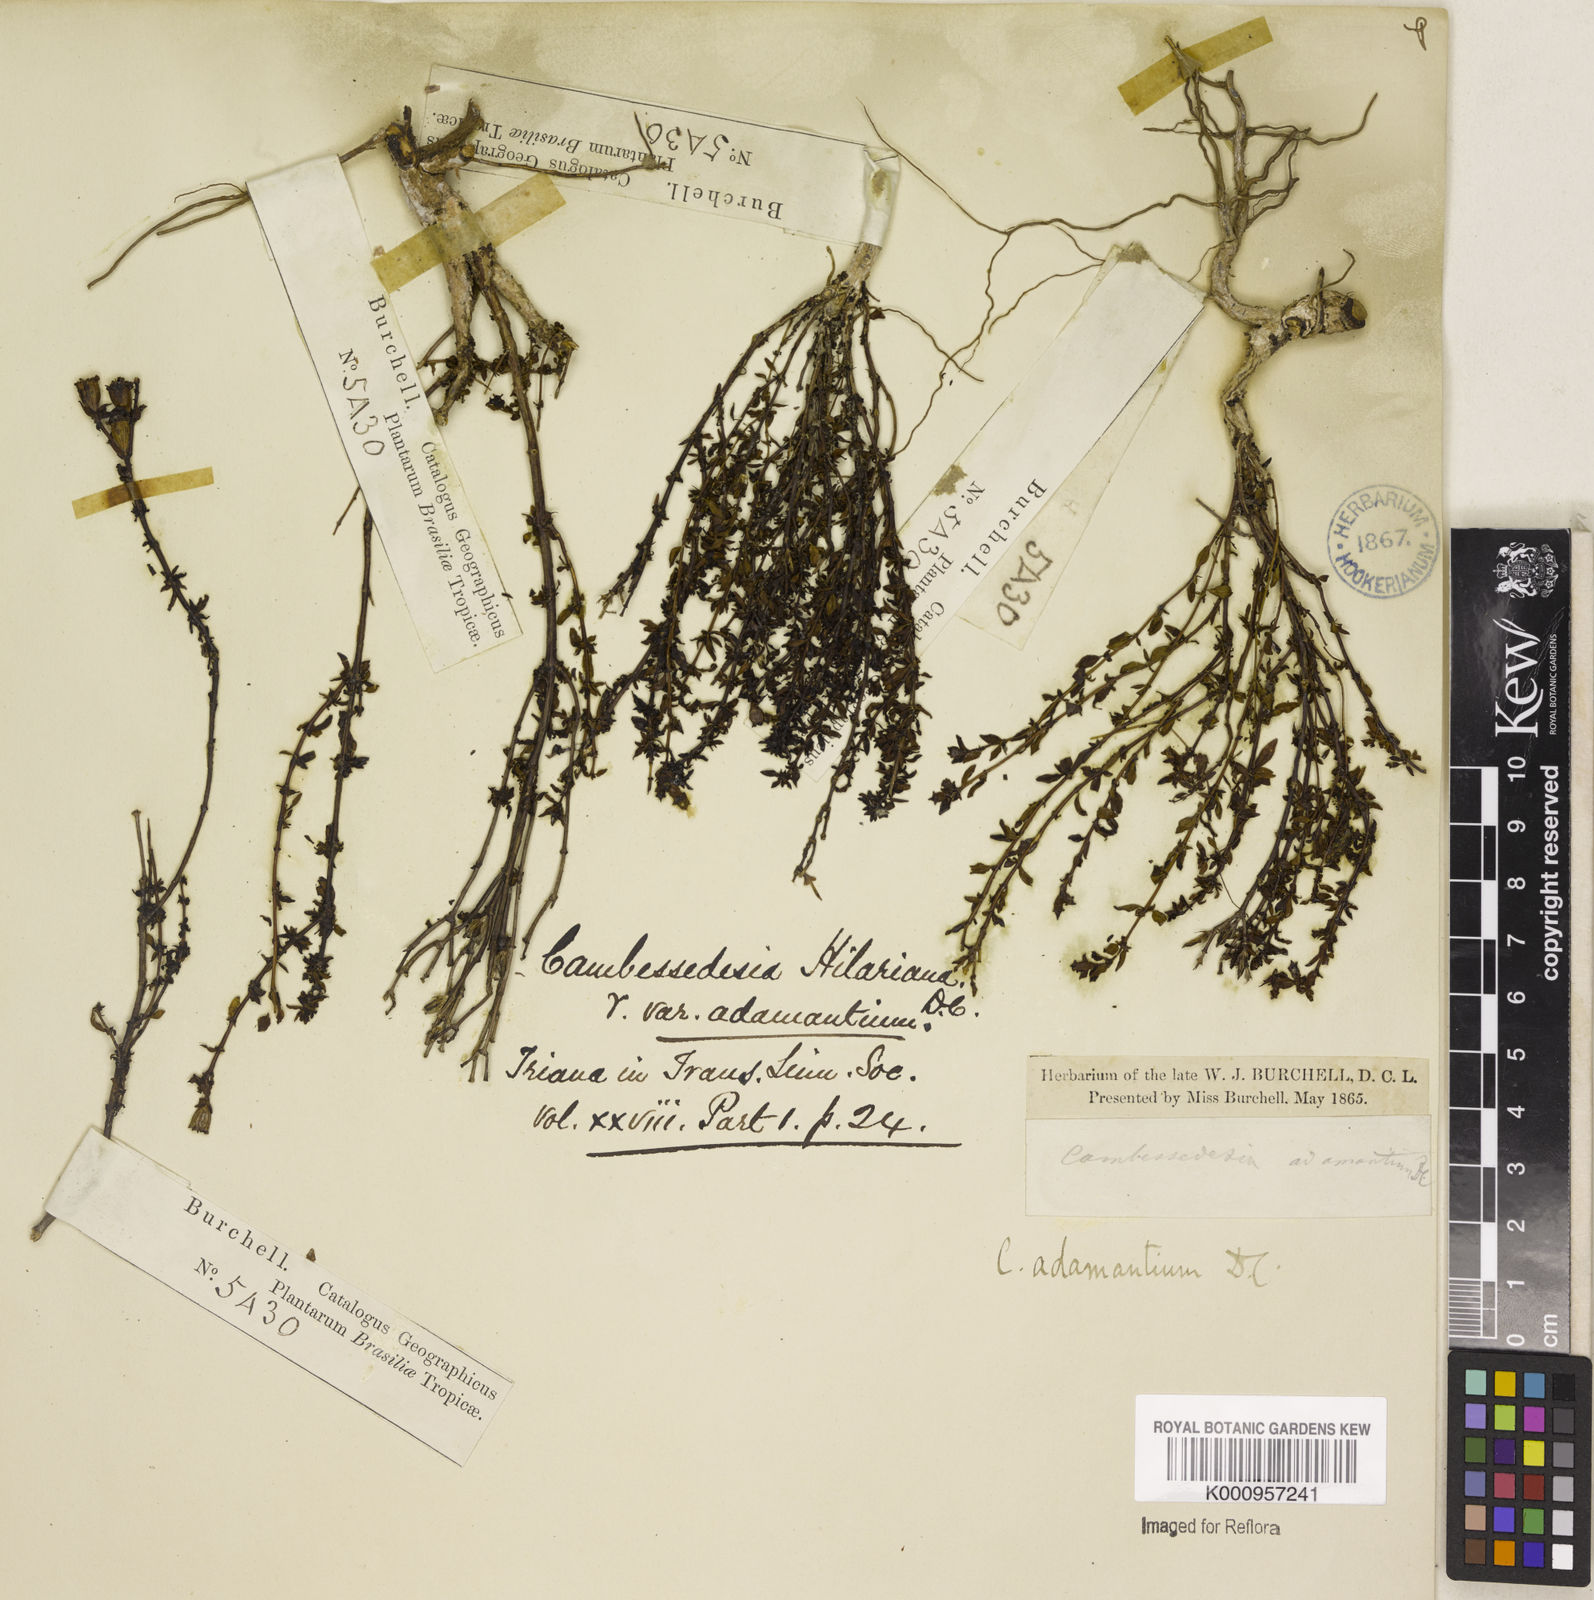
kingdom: Plantae
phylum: Tracheophyta
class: Magnoliopsida
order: Myrtales
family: Melastomataceae
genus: Cambessedesia
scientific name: Cambessedesia hilariana
